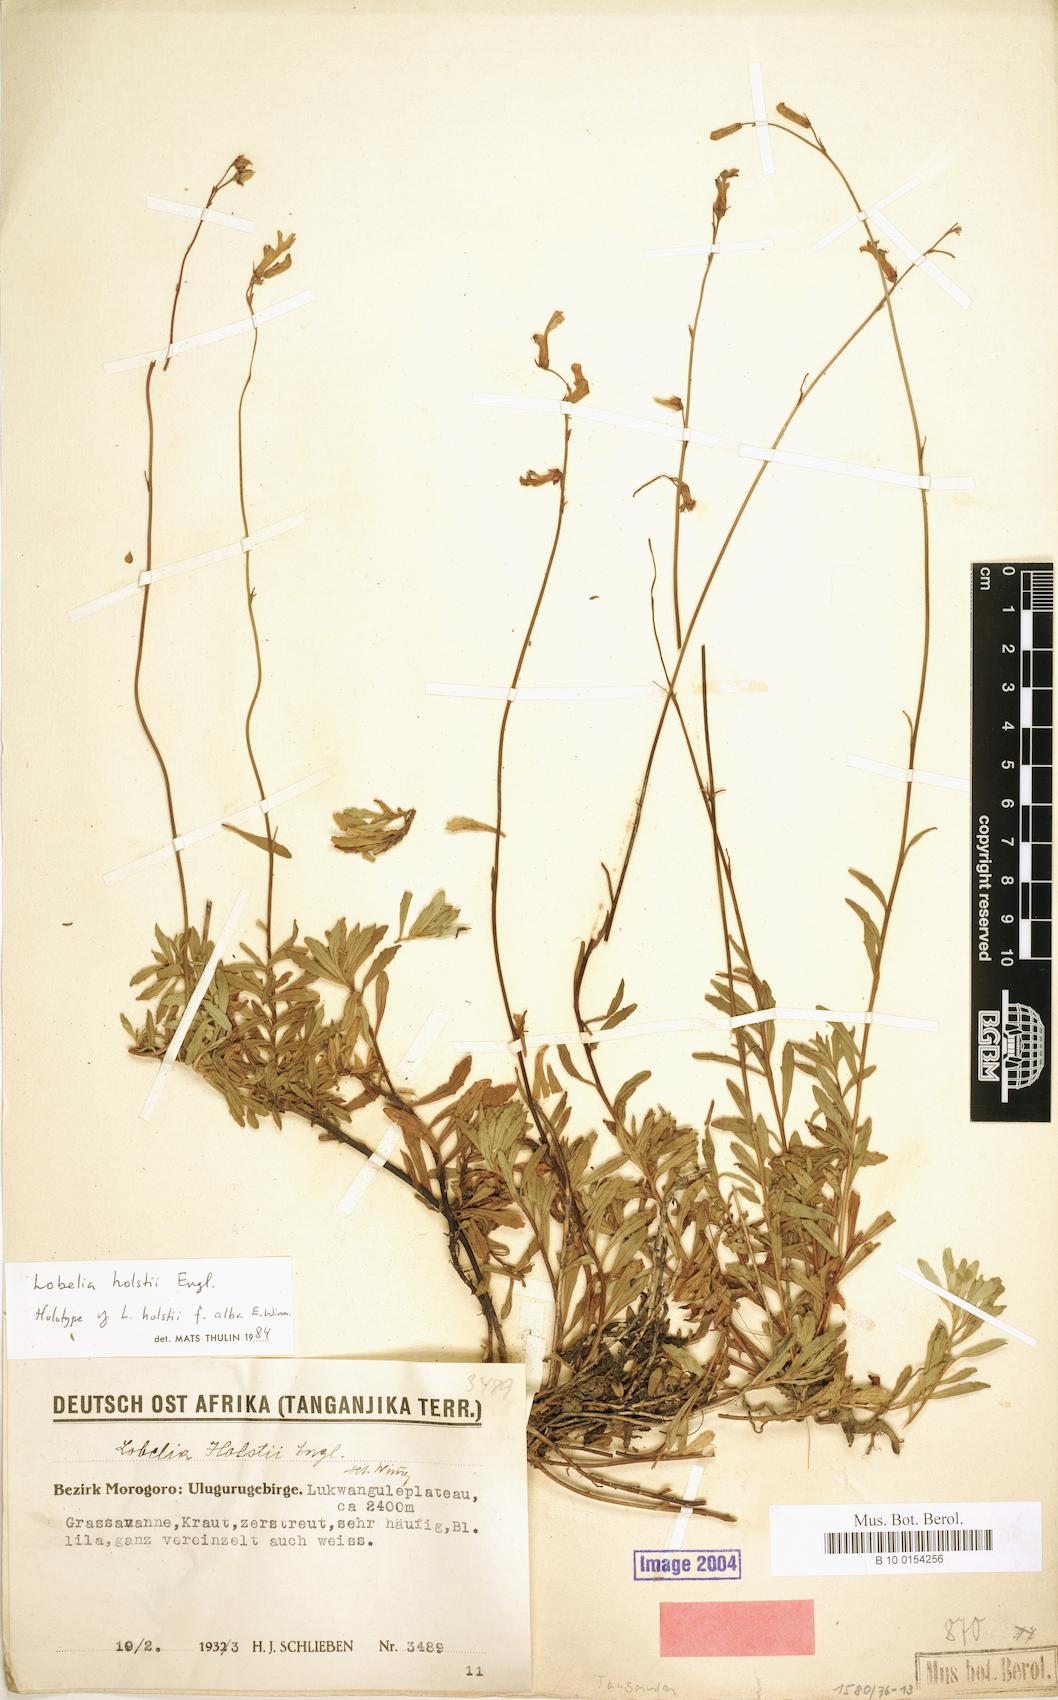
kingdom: Plantae
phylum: Tracheophyta
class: Magnoliopsida
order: Asterales
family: Campanulaceae
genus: Lobelia
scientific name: Lobelia holstii
